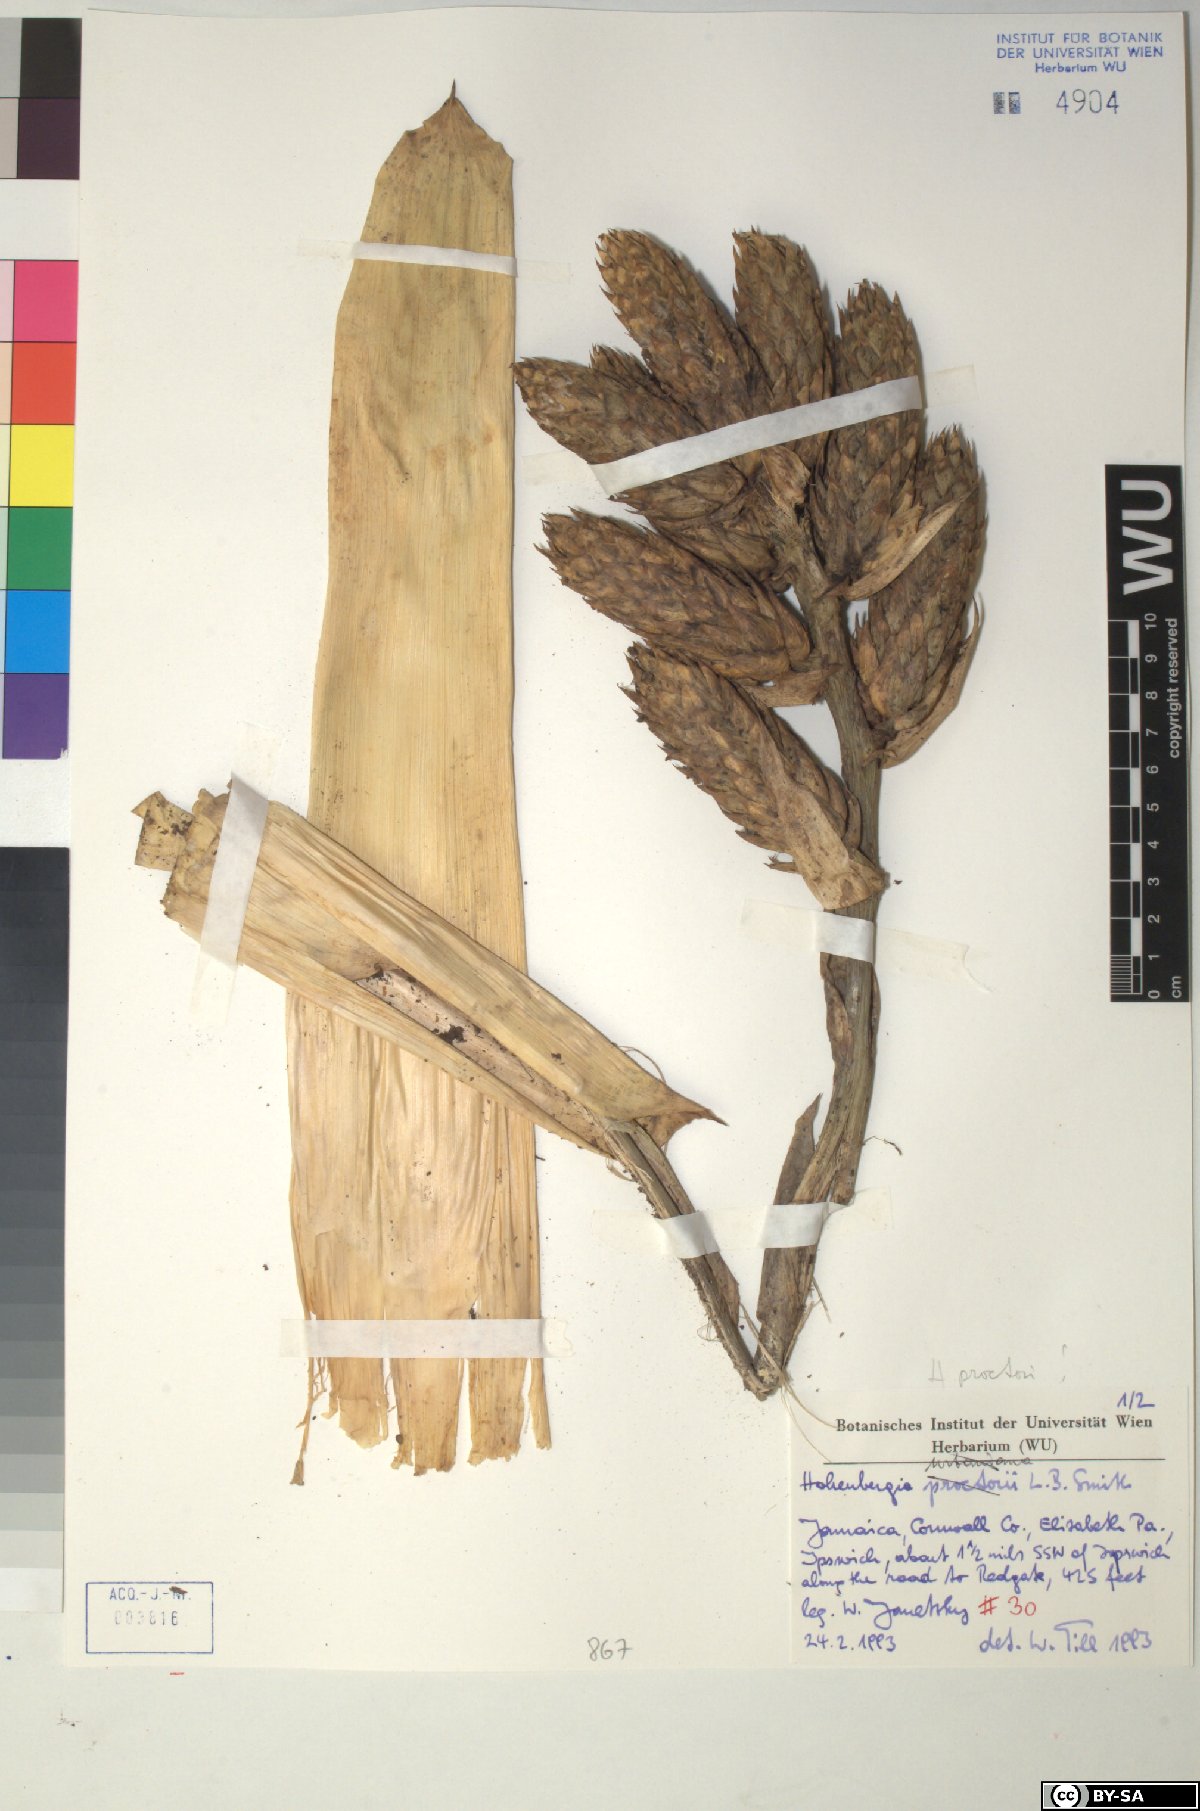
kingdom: Plantae
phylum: Tracheophyta
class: Liliopsida
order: Poales
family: Bromeliaceae
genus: Wittmackia
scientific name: Wittmackia urbaniana
